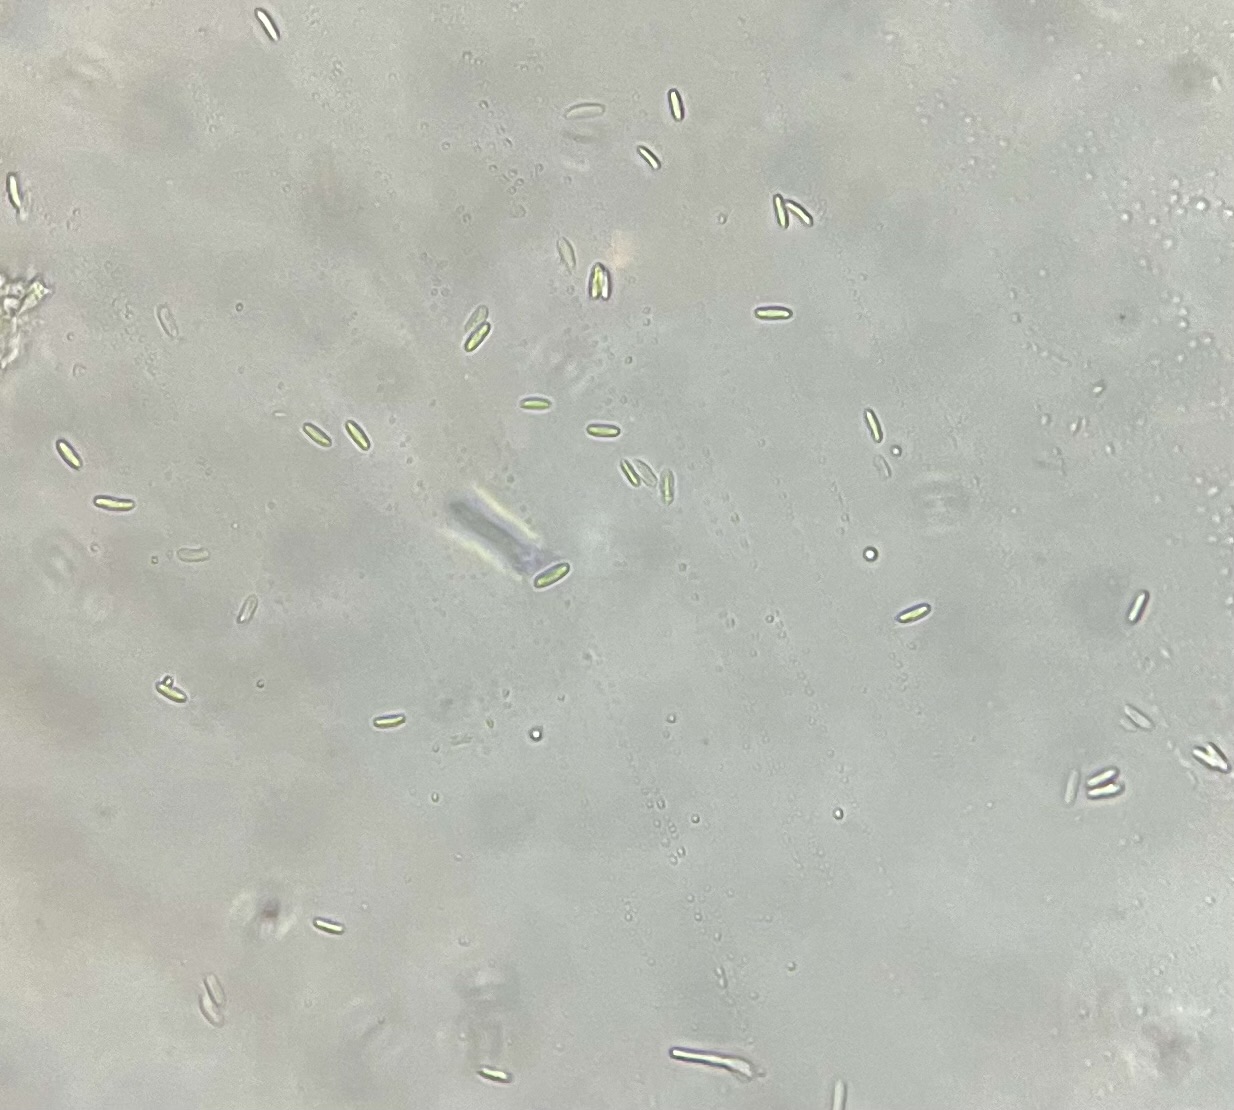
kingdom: Fungi
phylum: Ascomycota
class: Sordariomycetes
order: Hypocreales
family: Nectriaceae
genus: Volutella
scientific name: Volutella arundinis
